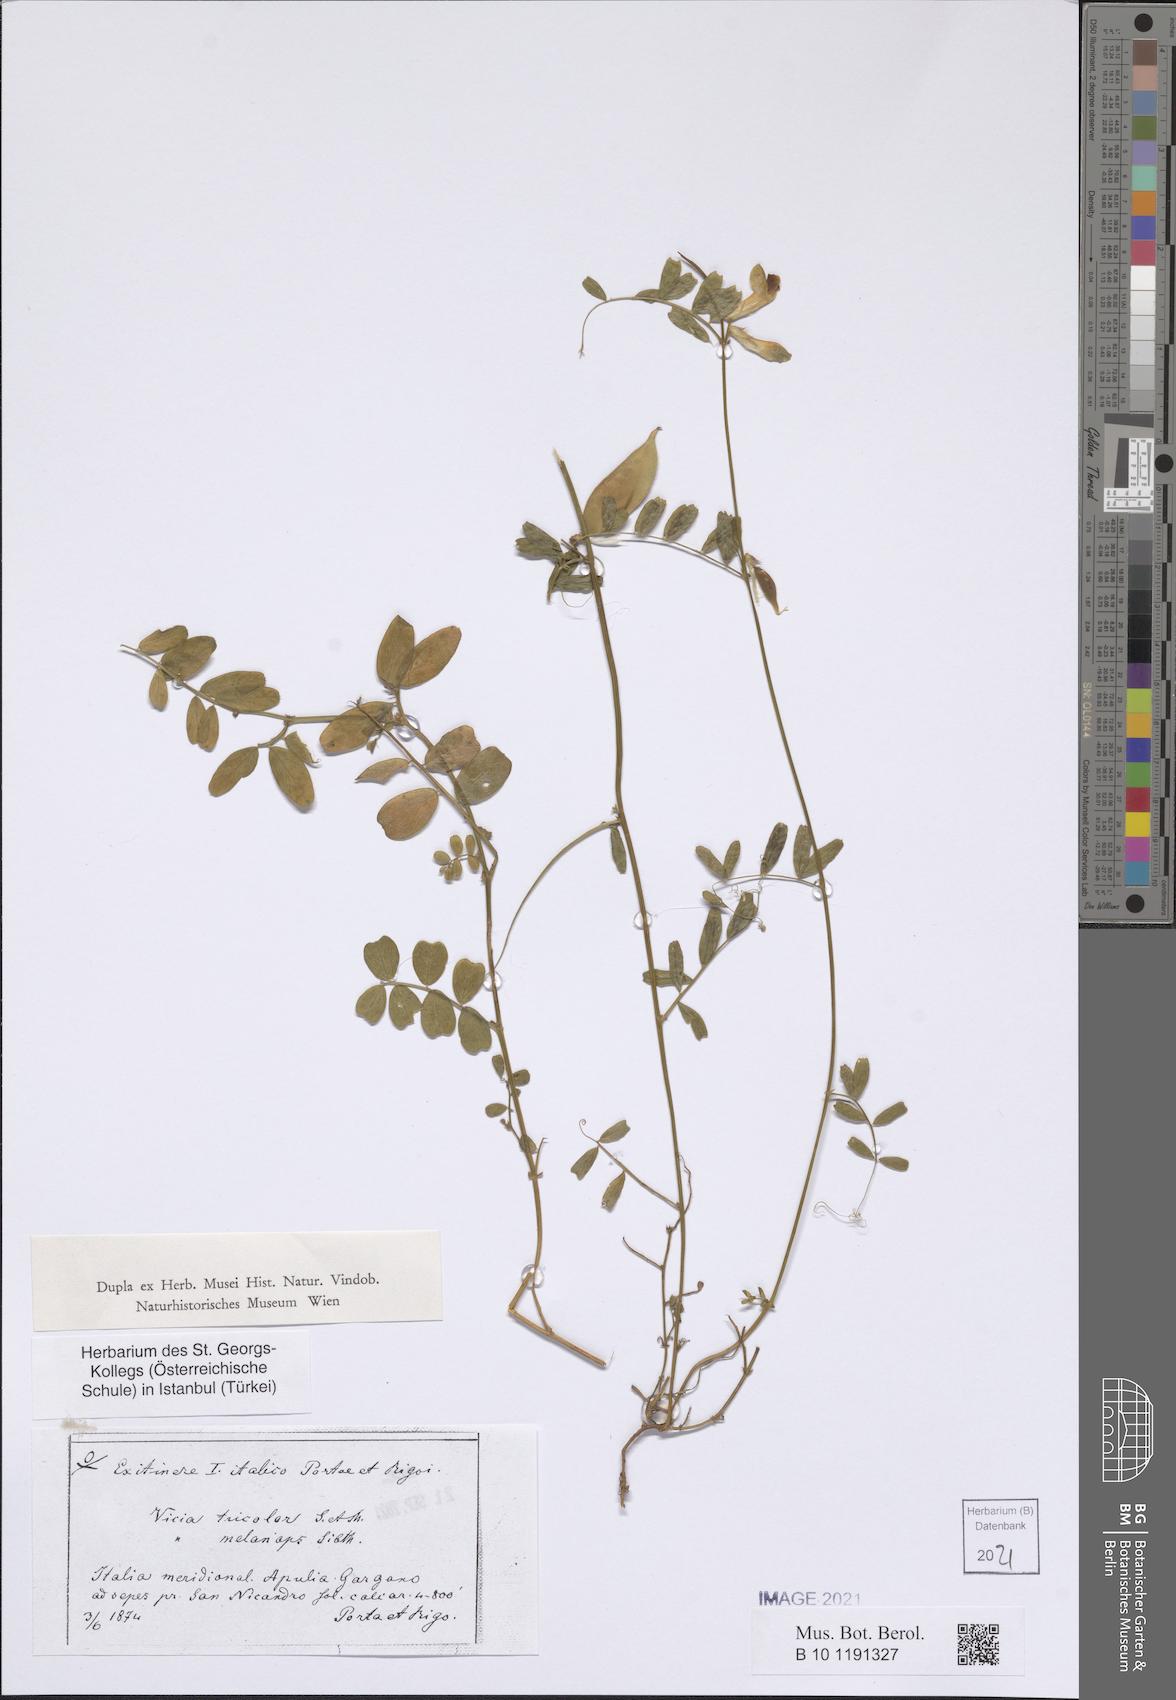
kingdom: Plantae
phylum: Tracheophyta
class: Magnoliopsida
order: Fabales
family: Fabaceae
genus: Vicia
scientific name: Vicia melanops
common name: Black-eyed vetch
